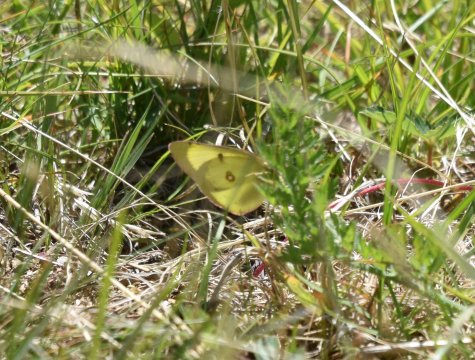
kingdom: Animalia
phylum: Arthropoda
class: Insecta
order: Lepidoptera
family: Pieridae
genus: Colias
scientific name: Colias philodice
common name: Clouded Sulphur
